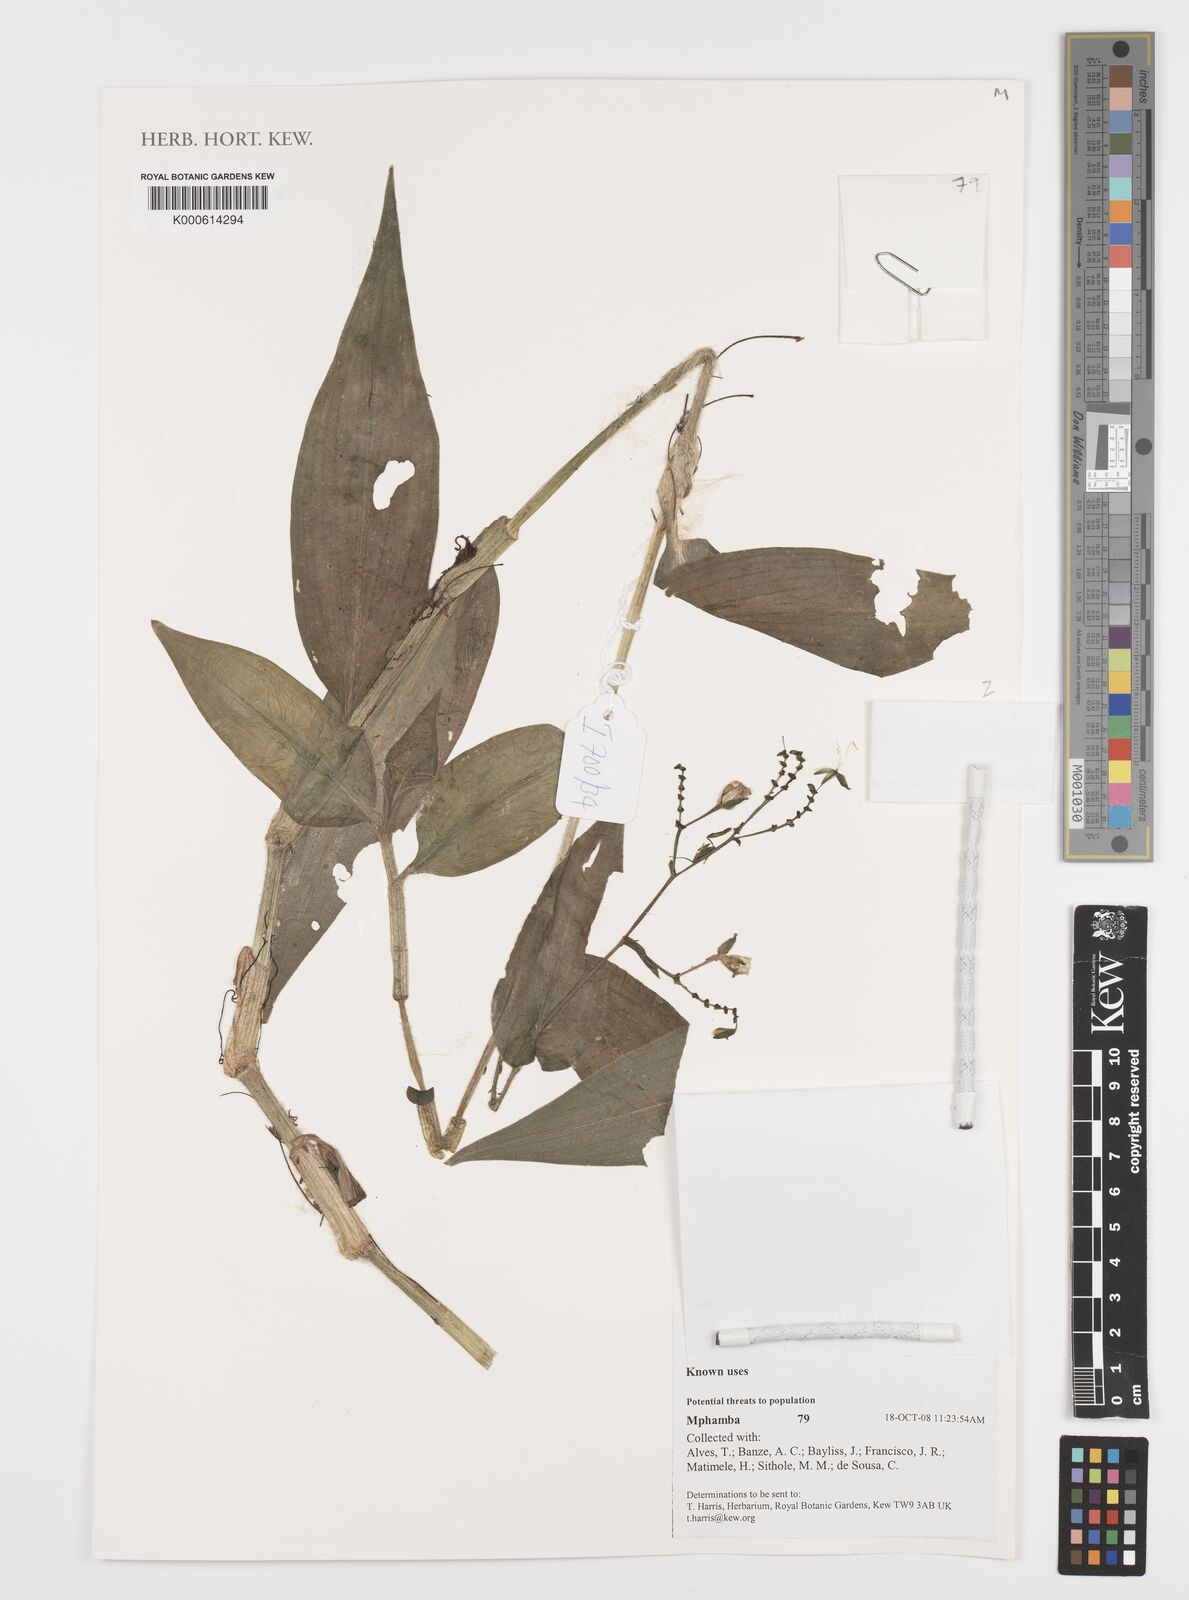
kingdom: Plantae
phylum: Tracheophyta
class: Liliopsida
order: Commelinales
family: Commelinaceae
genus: Aneilema
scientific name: Aneilema
